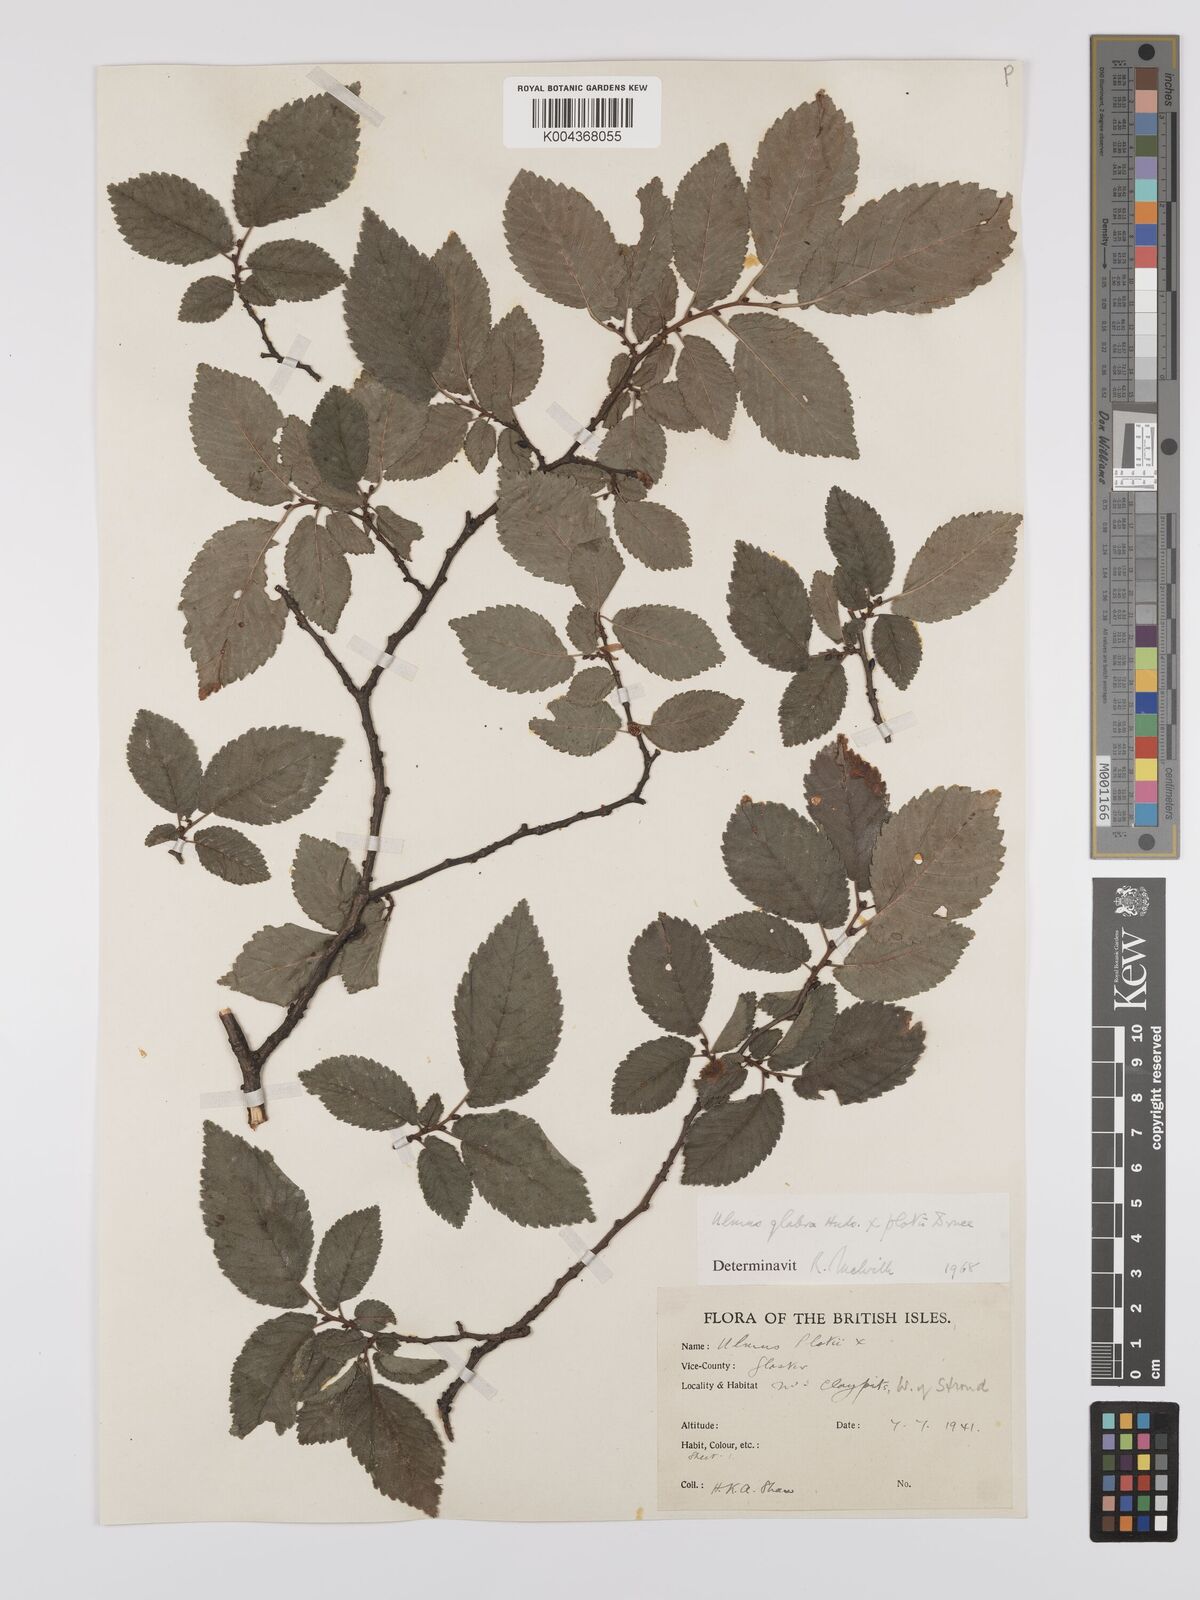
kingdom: Plantae
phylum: Tracheophyta
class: Magnoliopsida
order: Rosales
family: Ulmaceae
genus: Ulmus
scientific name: Ulmus
